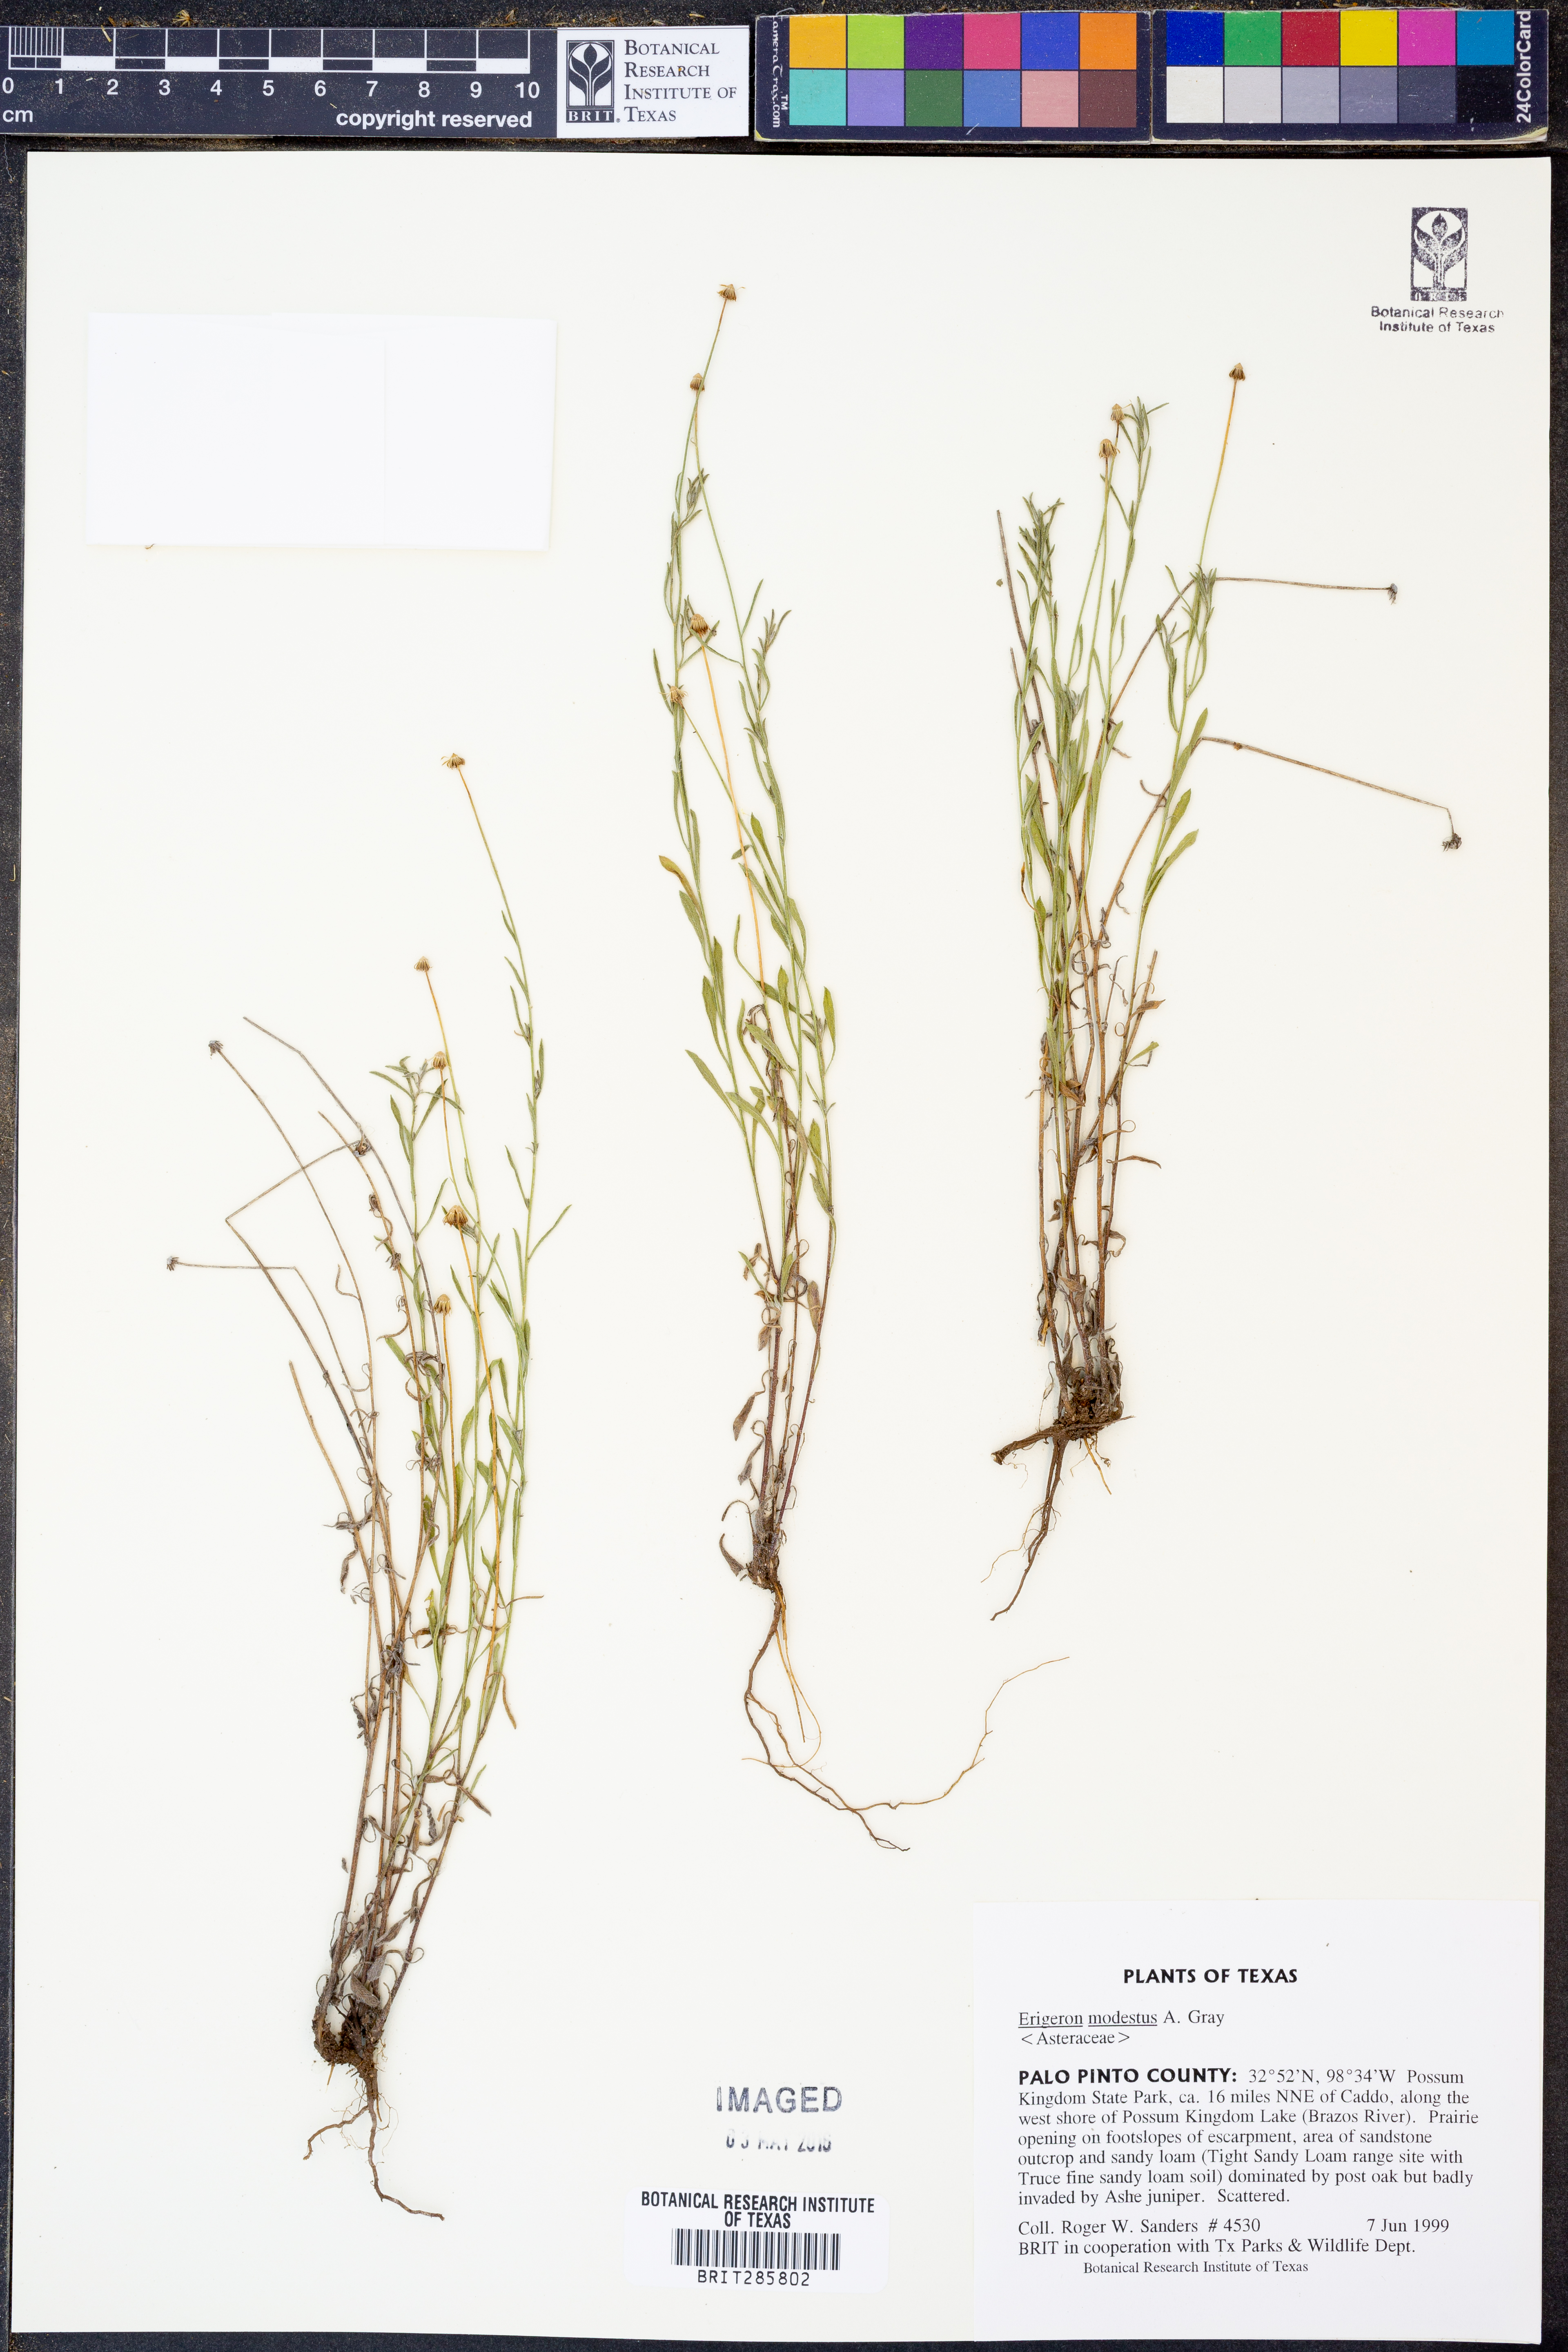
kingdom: Plantae
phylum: Tracheophyta
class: Magnoliopsida
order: Asterales
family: Asteraceae
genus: Erigeron
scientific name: Erigeron modestus
